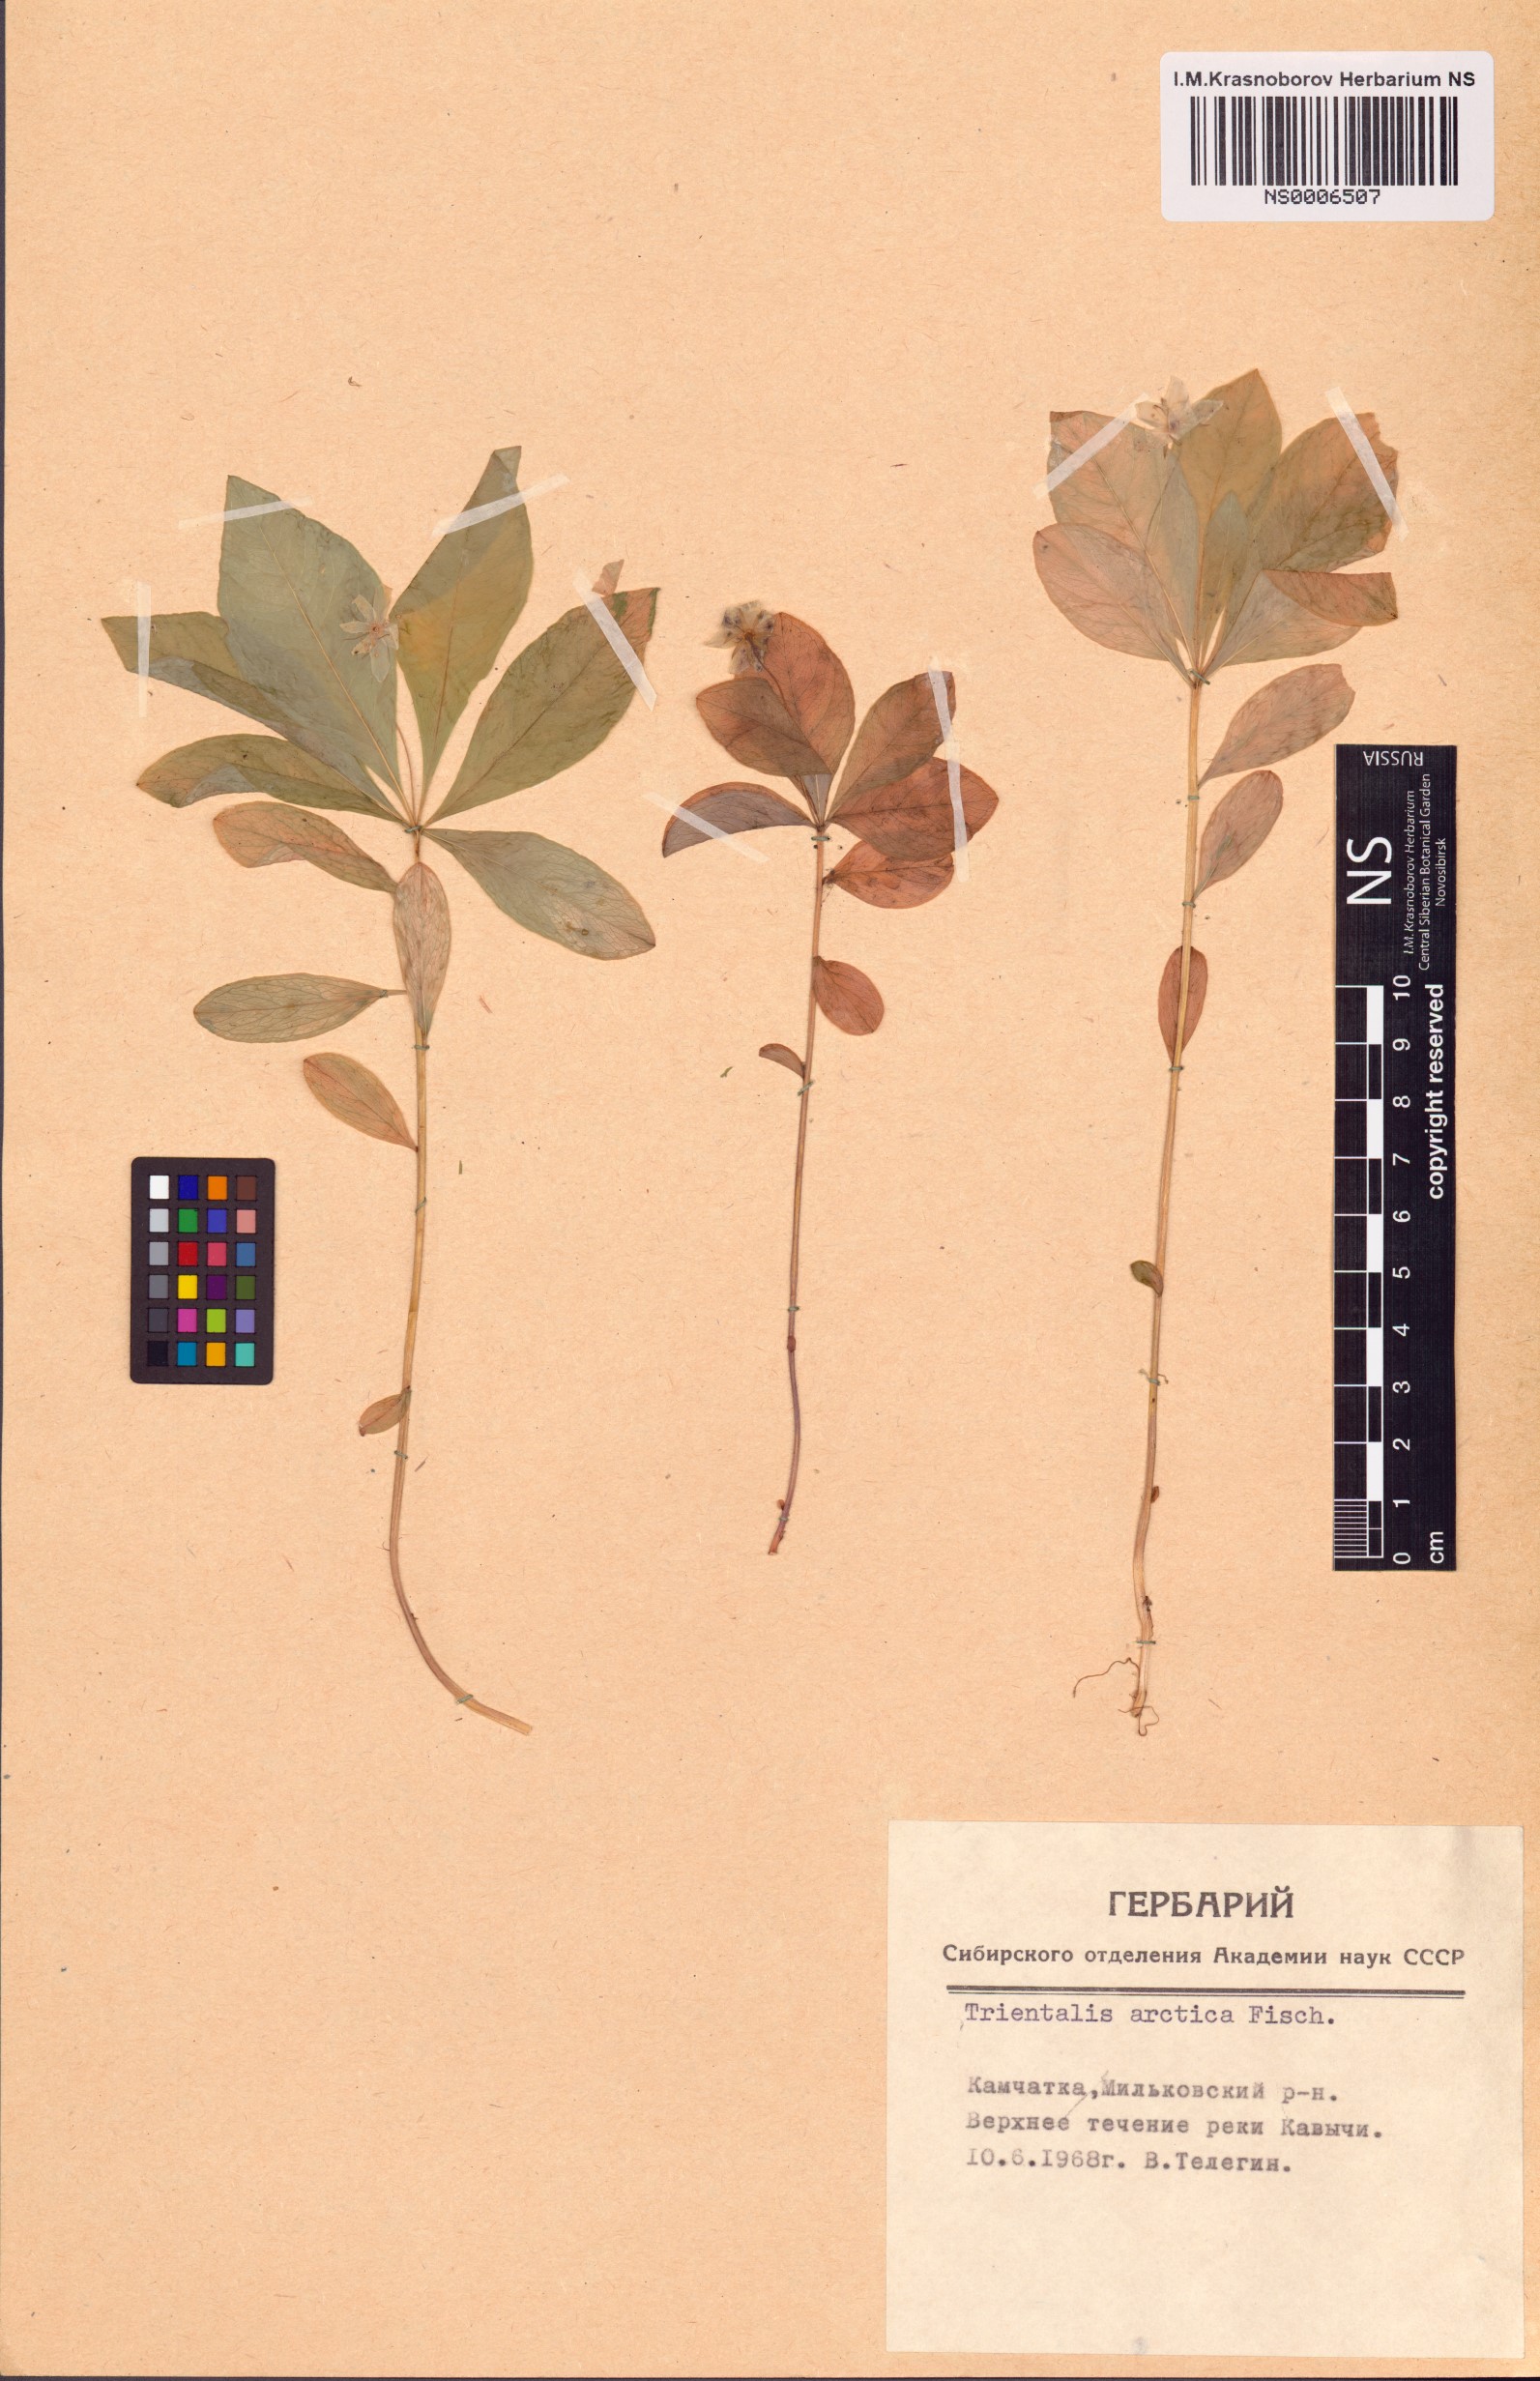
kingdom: Plantae
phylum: Tracheophyta
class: Magnoliopsida
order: Ericales
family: Primulaceae
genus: Lysimachia
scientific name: Lysimachia europaea
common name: Arctic starflower
